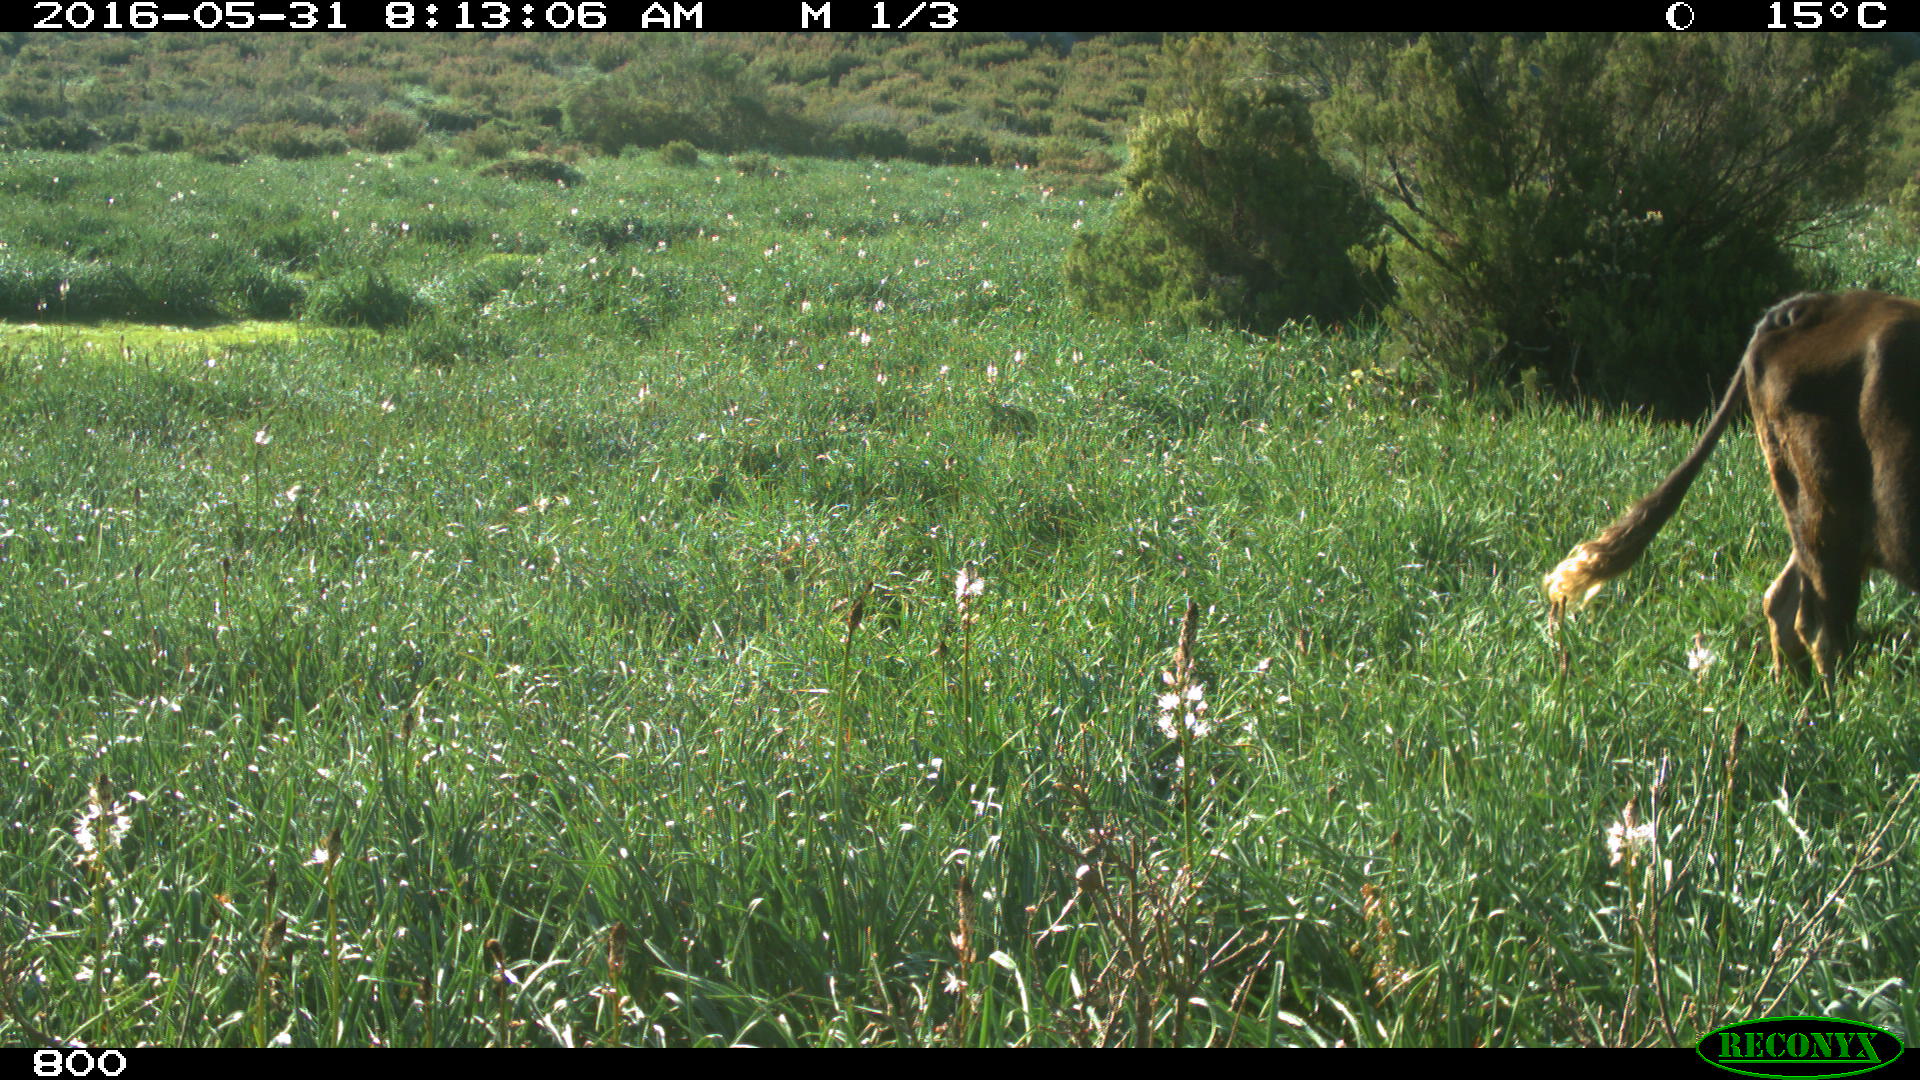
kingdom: Animalia
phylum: Chordata
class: Mammalia
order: Artiodactyla
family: Bovidae
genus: Bos
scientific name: Bos taurus
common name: Domesticated cattle
